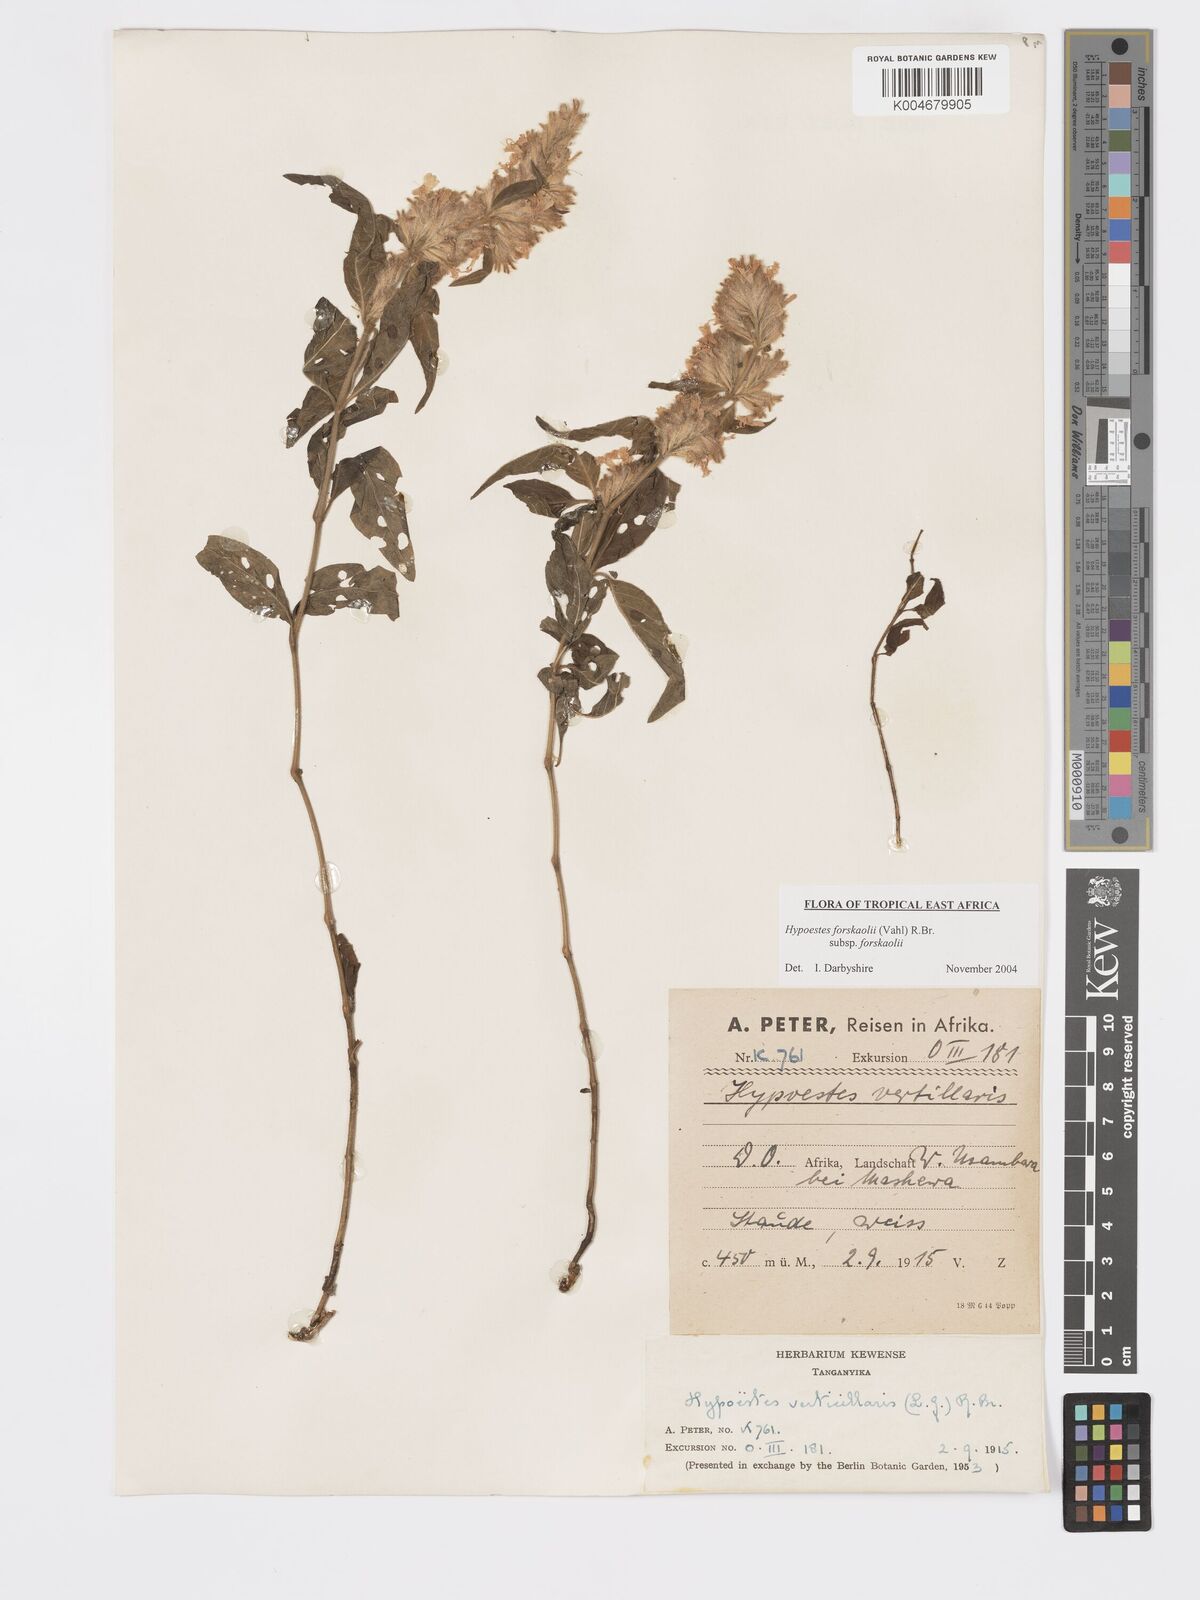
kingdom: Plantae
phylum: Tracheophyta
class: Magnoliopsida
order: Lamiales
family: Acanthaceae
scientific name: Acanthaceae
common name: Acanthaceae
